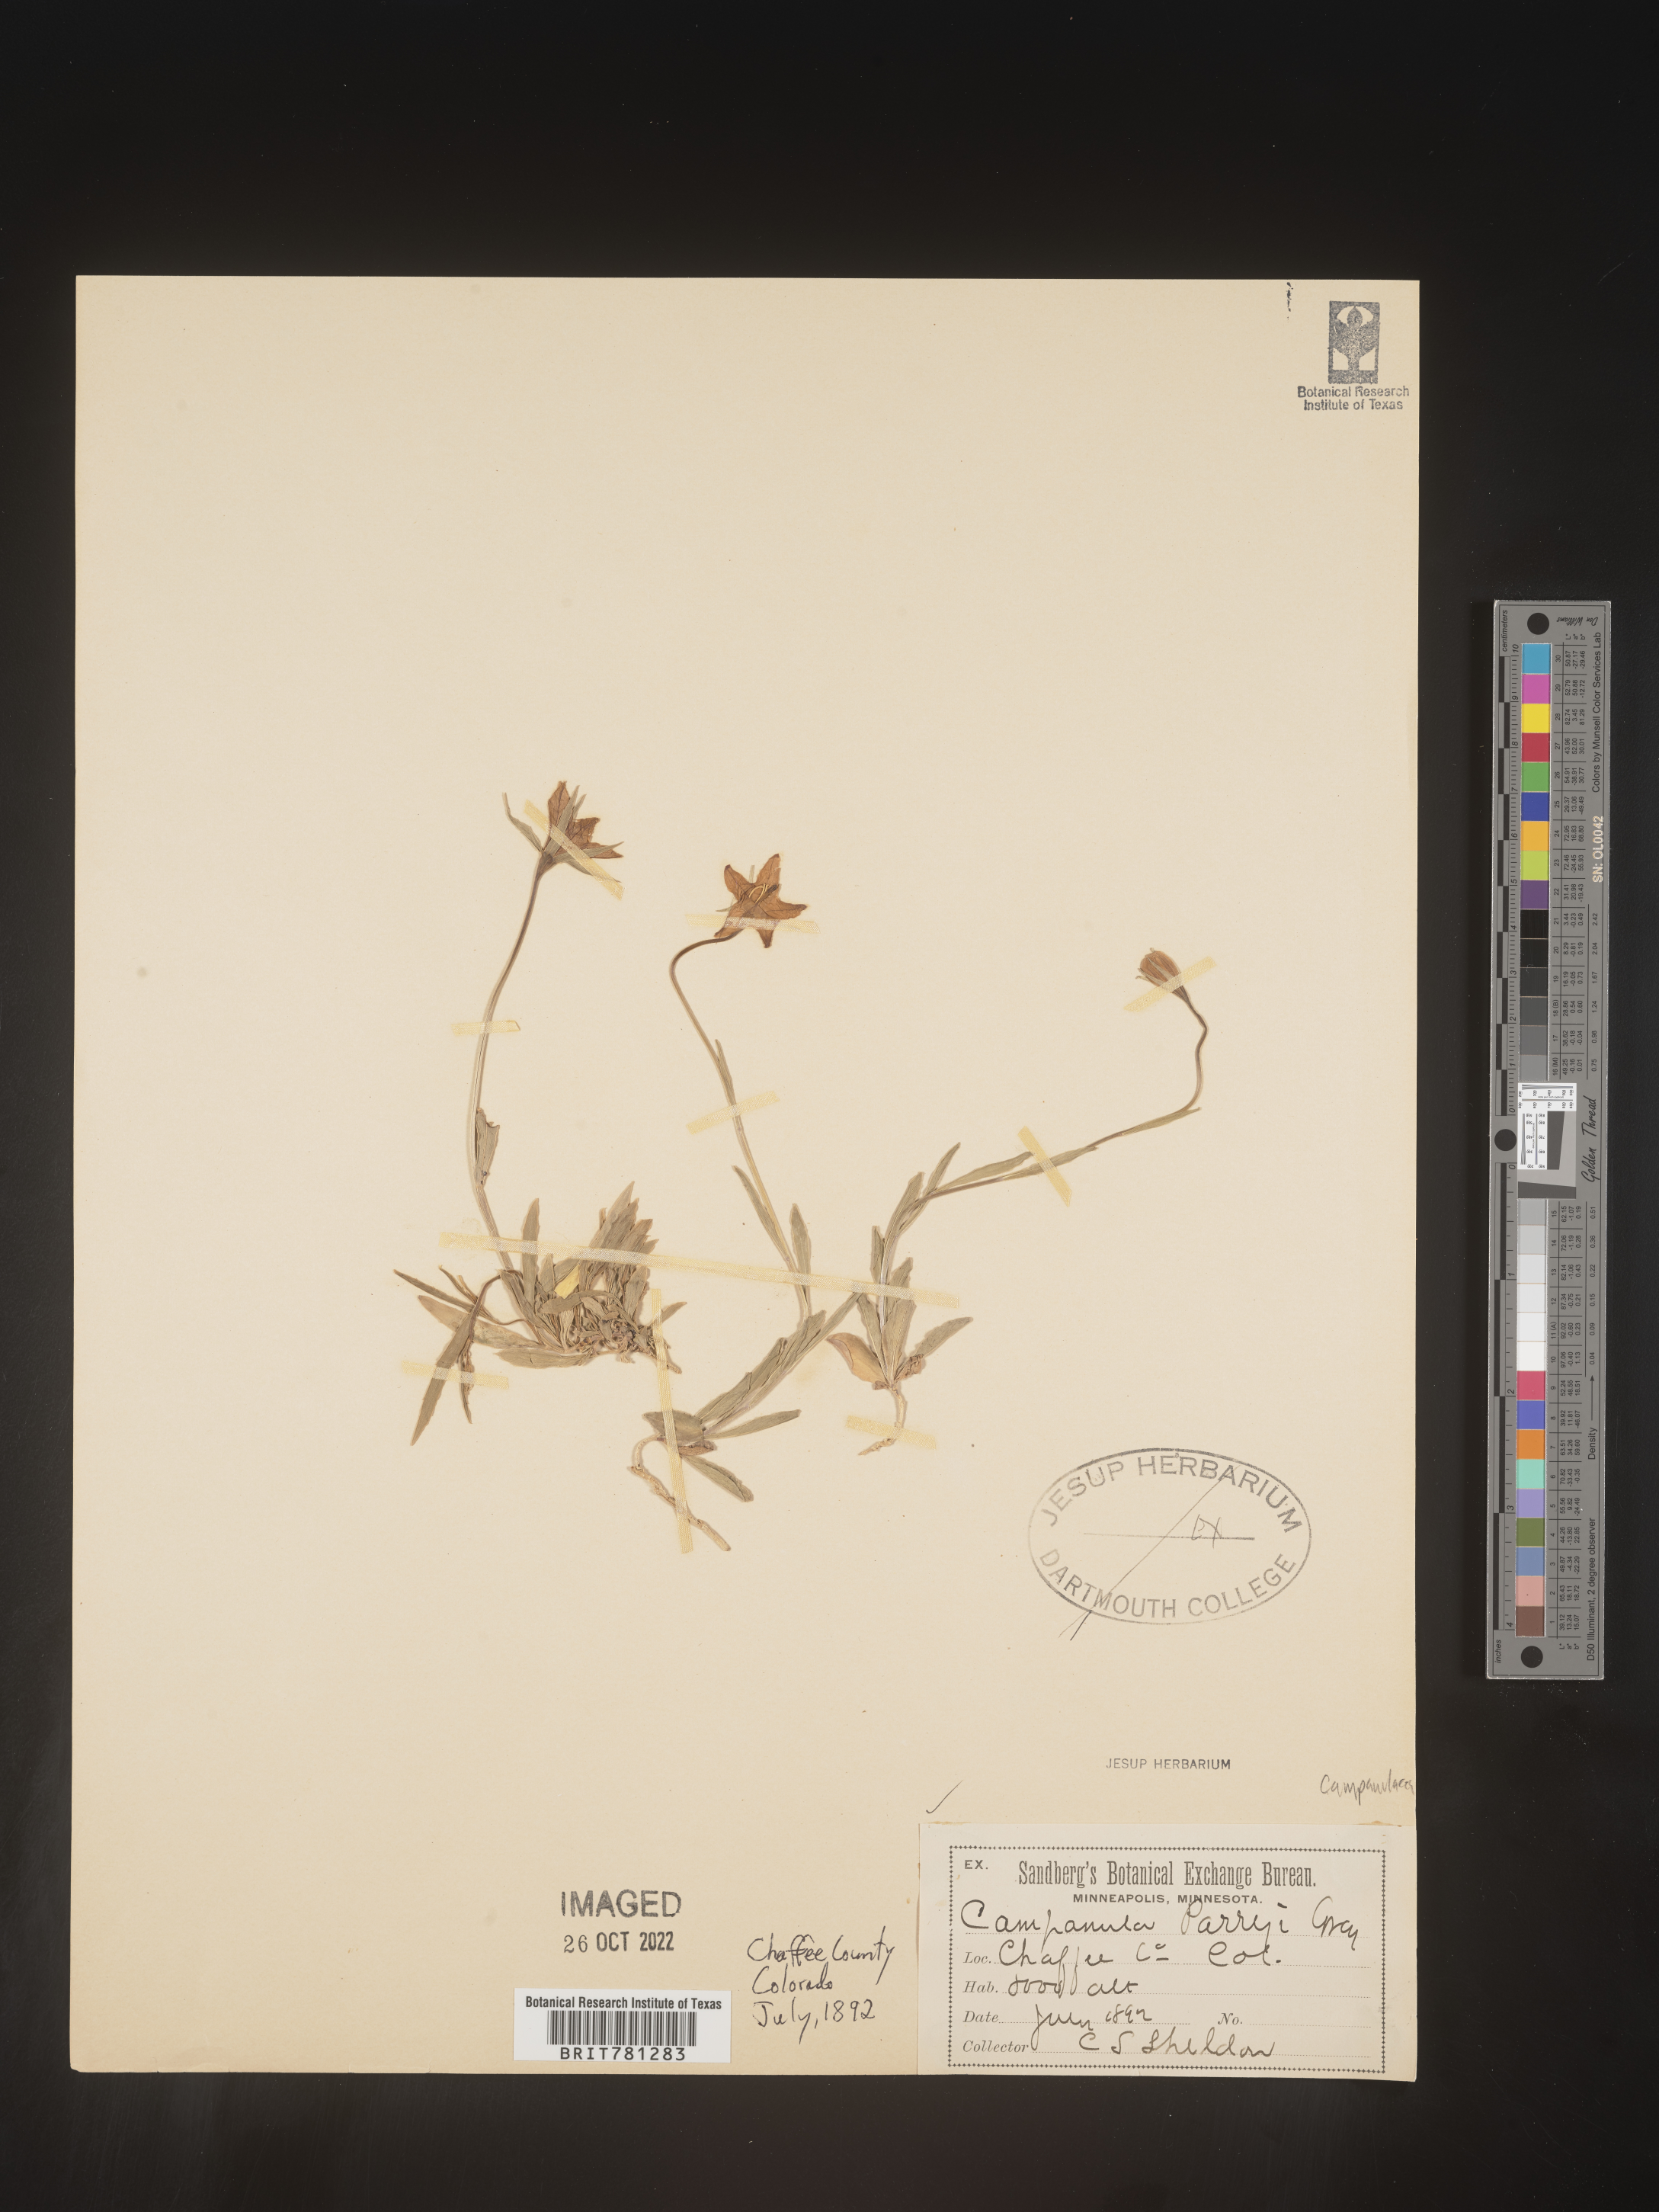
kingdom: Plantae
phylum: Tracheophyta
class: Magnoliopsida
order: Asterales
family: Campanulaceae
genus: Campanula
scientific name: Campanula parryi
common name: Rocky mountain bellflower
